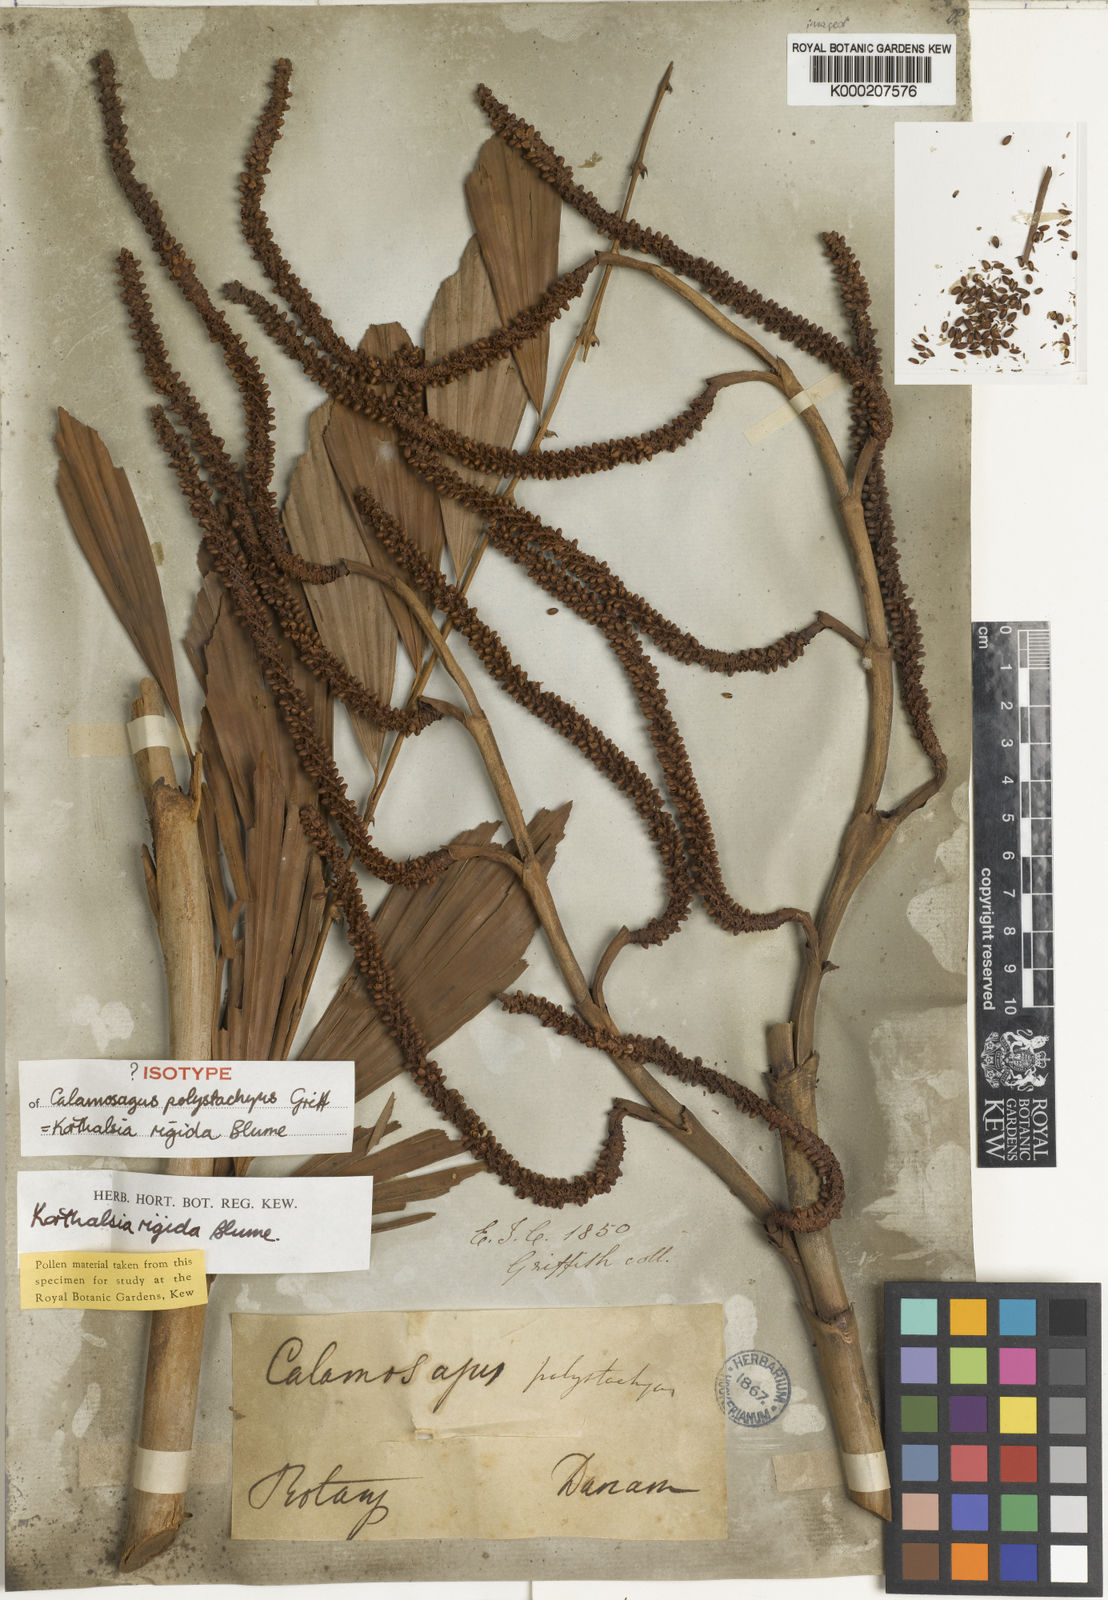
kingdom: Plantae
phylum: Tracheophyta
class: Liliopsida
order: Arecales
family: Arecaceae
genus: Korthalsia
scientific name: Korthalsia rigida
